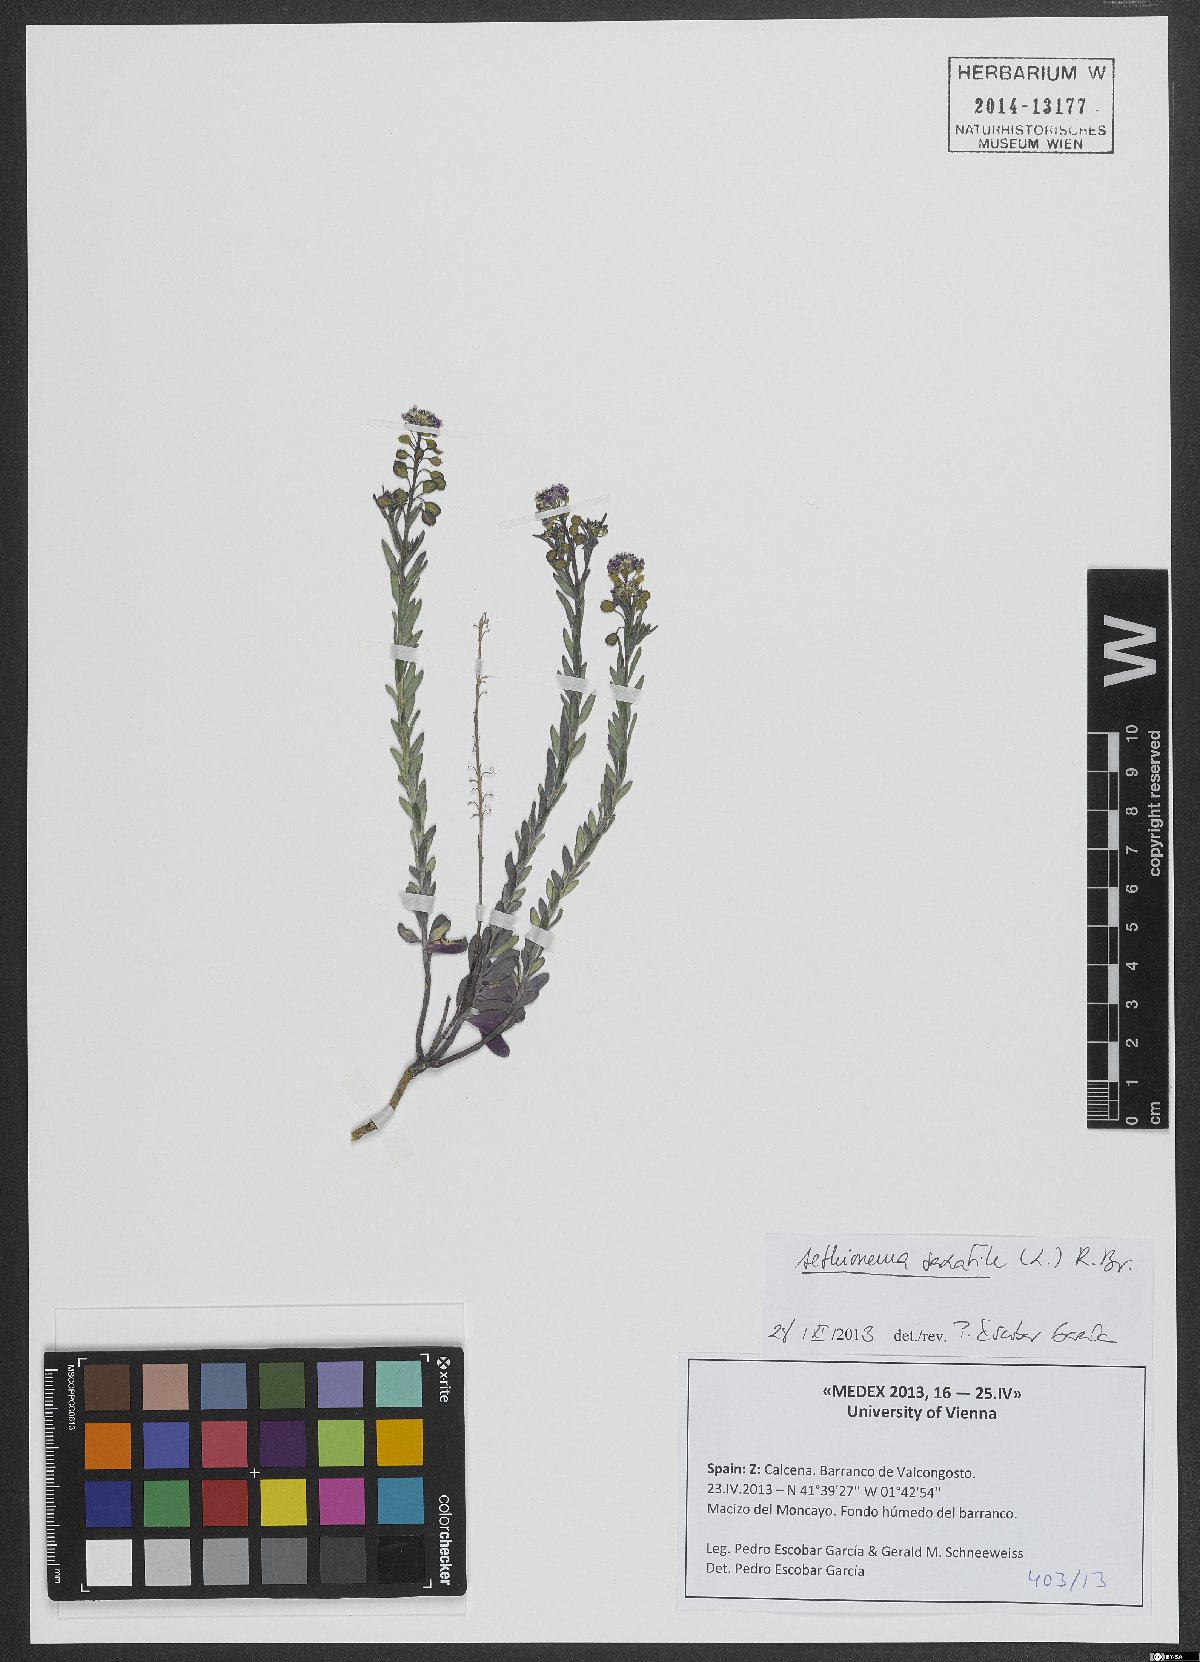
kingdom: Plantae
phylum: Tracheophyta
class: Magnoliopsida
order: Brassicales
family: Brassicaceae
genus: Aethionema
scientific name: Aethionema saxatile
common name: Burnt candytuft
